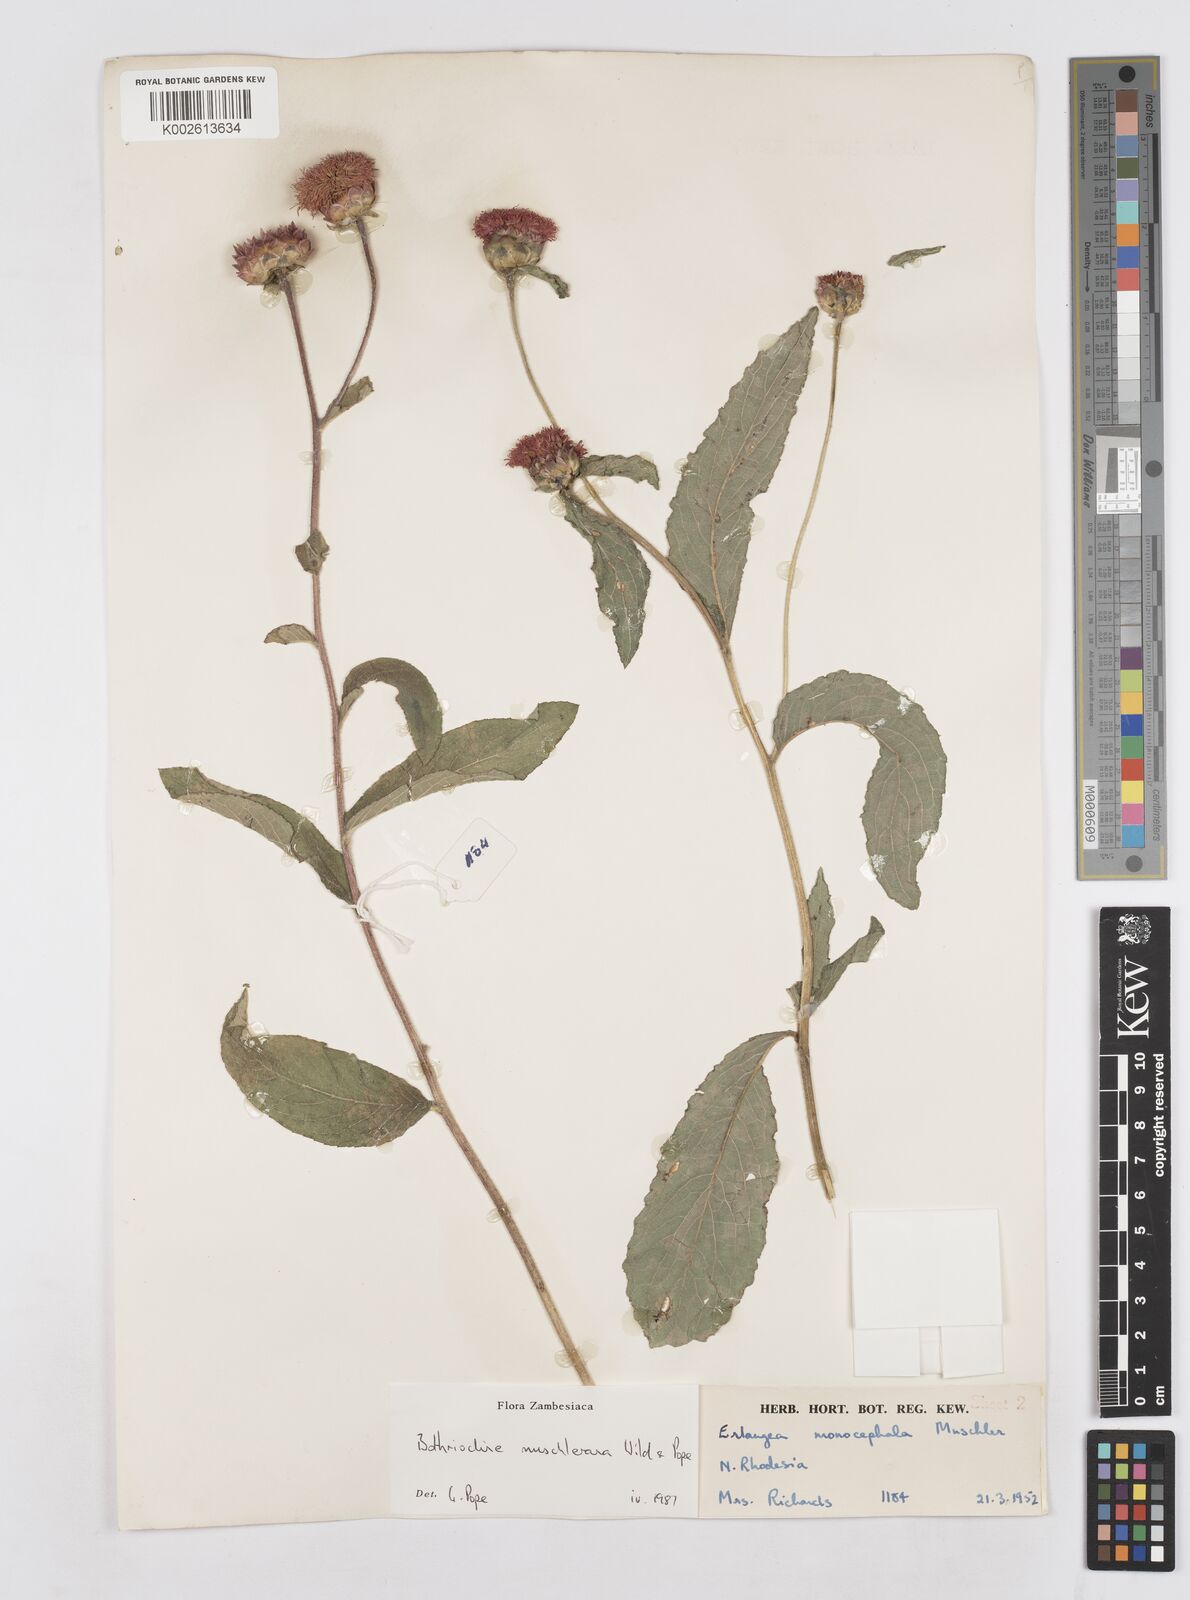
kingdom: Plantae
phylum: Tracheophyta
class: Magnoliopsida
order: Asterales
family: Asteraceae
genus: Bothriocline
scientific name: Bothriocline muschleriana
